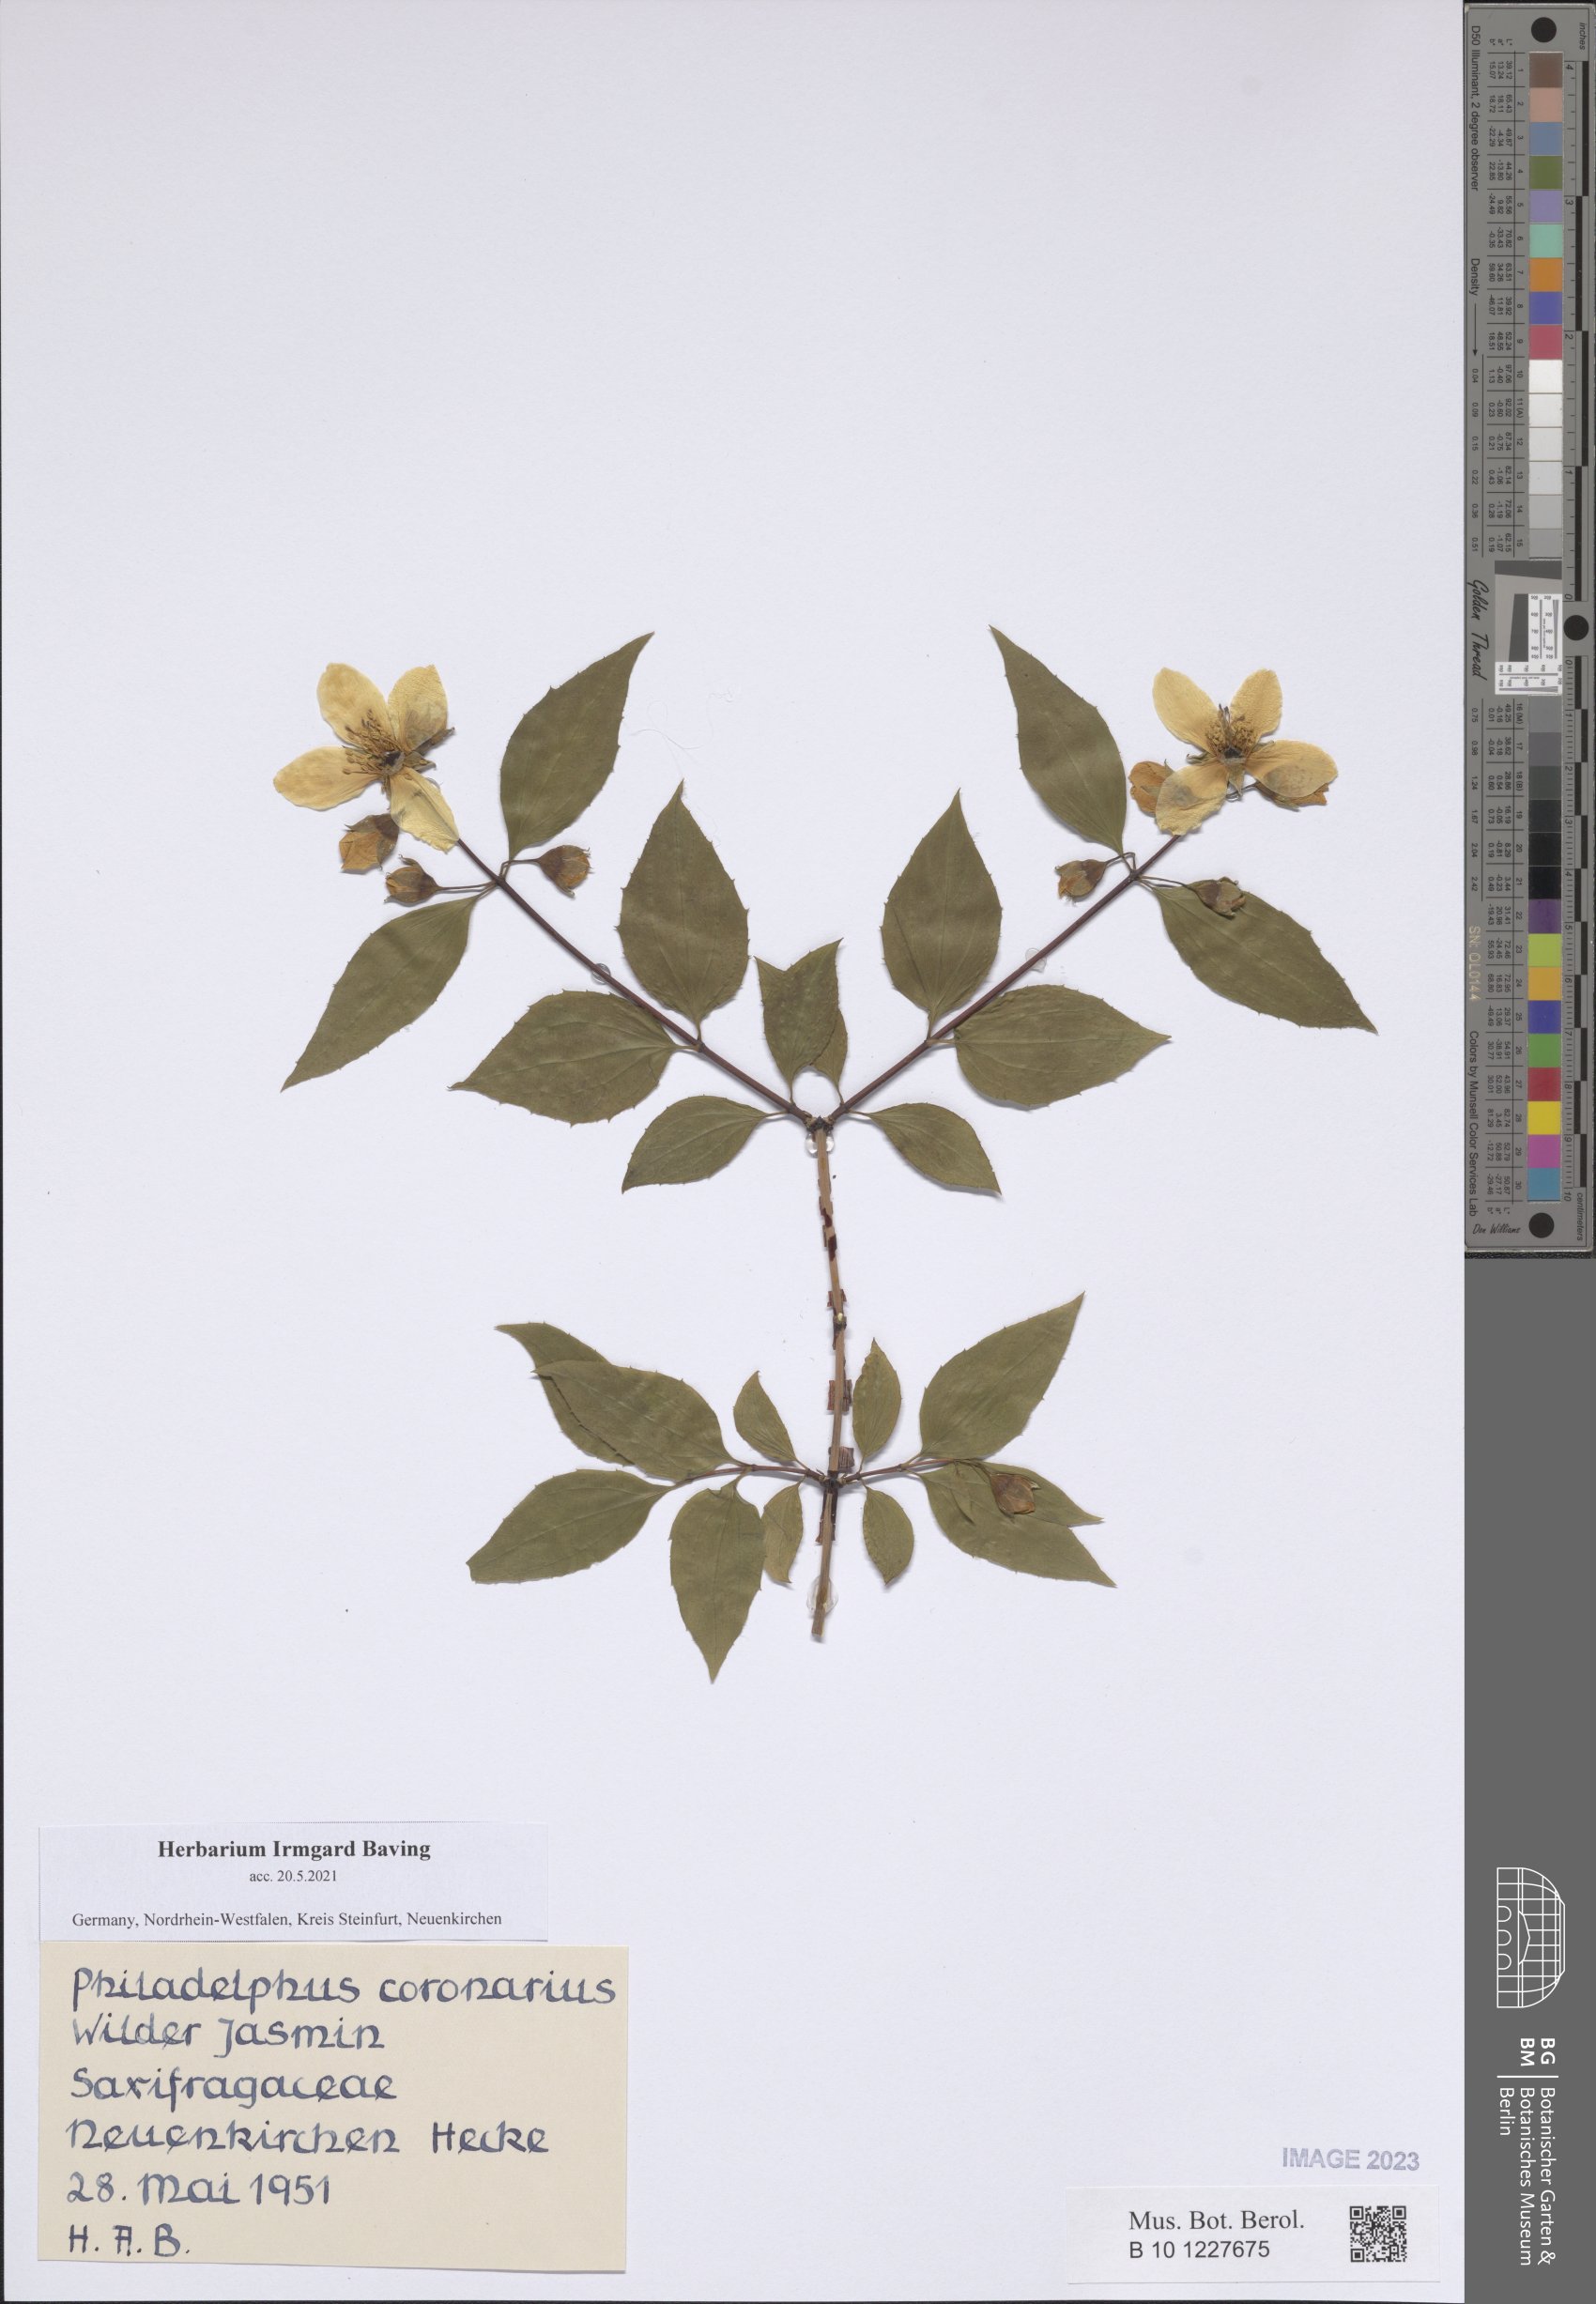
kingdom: Plantae
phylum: Tracheophyta
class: Magnoliopsida
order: Cornales
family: Hydrangeaceae
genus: Philadelphus
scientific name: Philadelphus coronarius
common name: Mock orange
